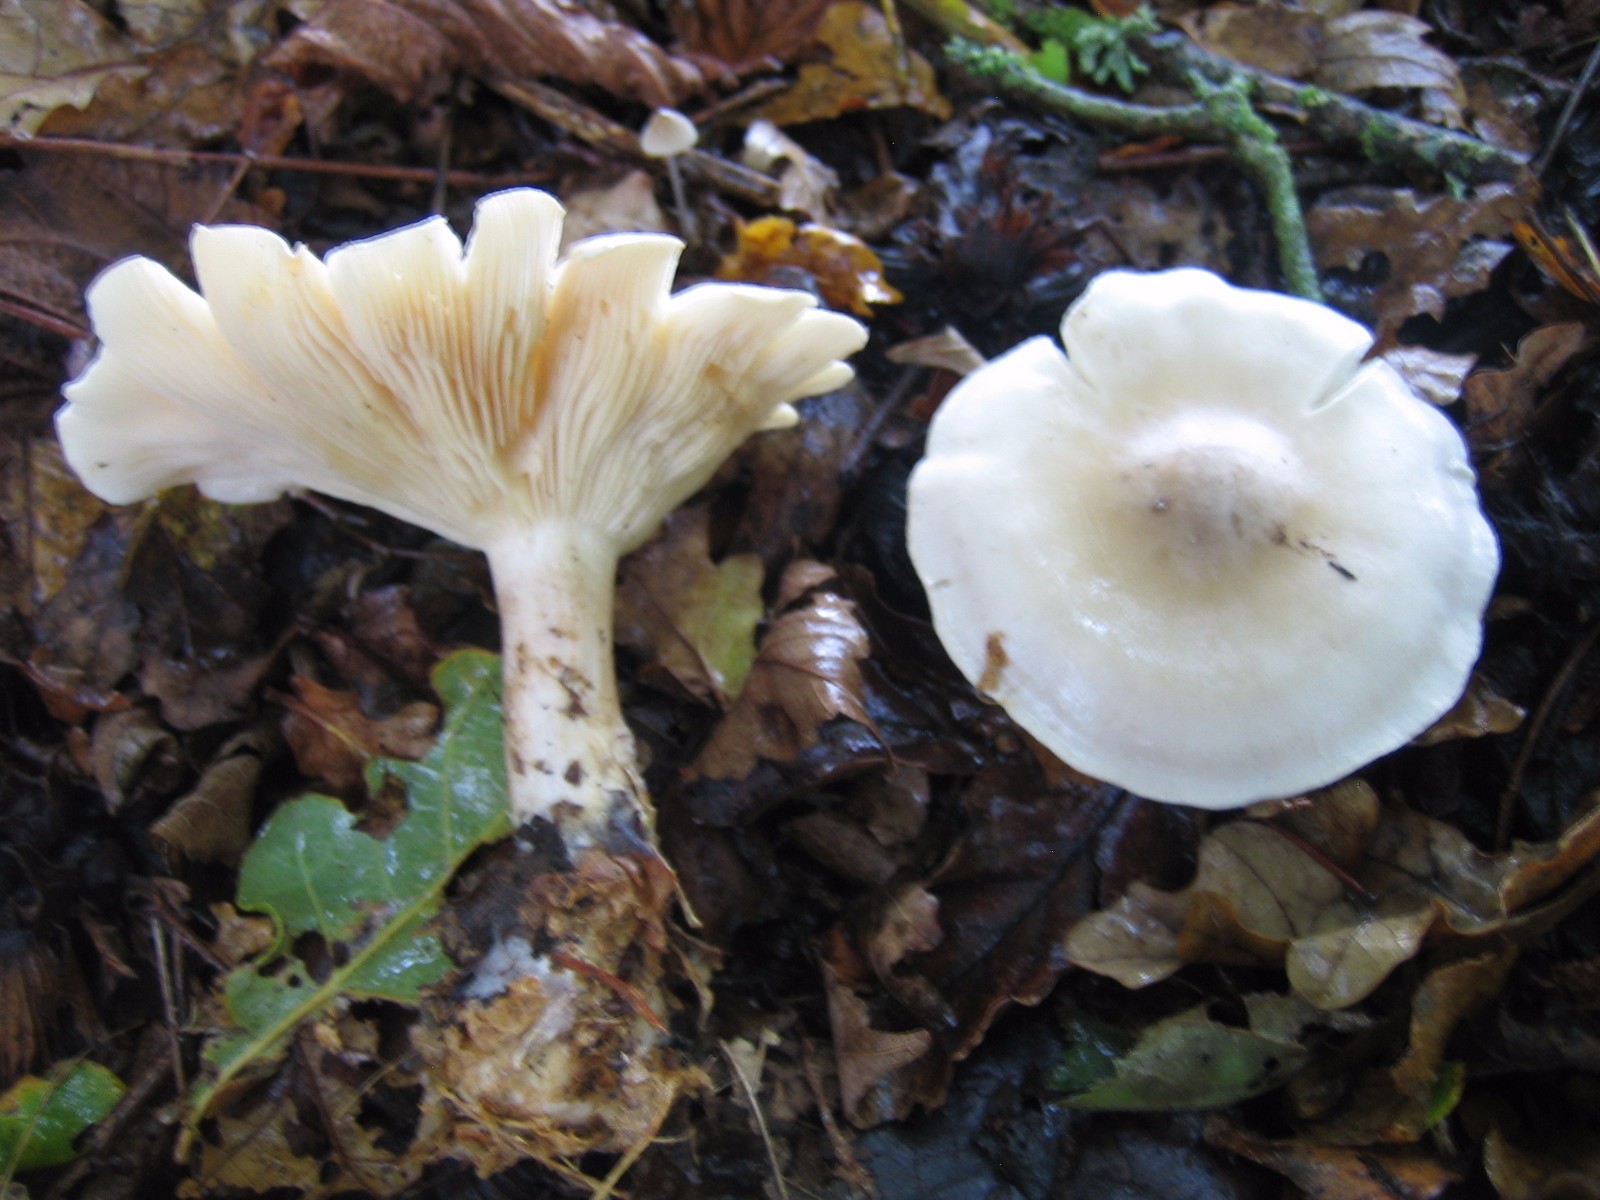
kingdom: Fungi
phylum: Basidiomycota
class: Agaricomycetes
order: Agaricales
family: Tricholomataceae
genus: Clitocybe
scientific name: Clitocybe nebularis
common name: tåge-tragthat
